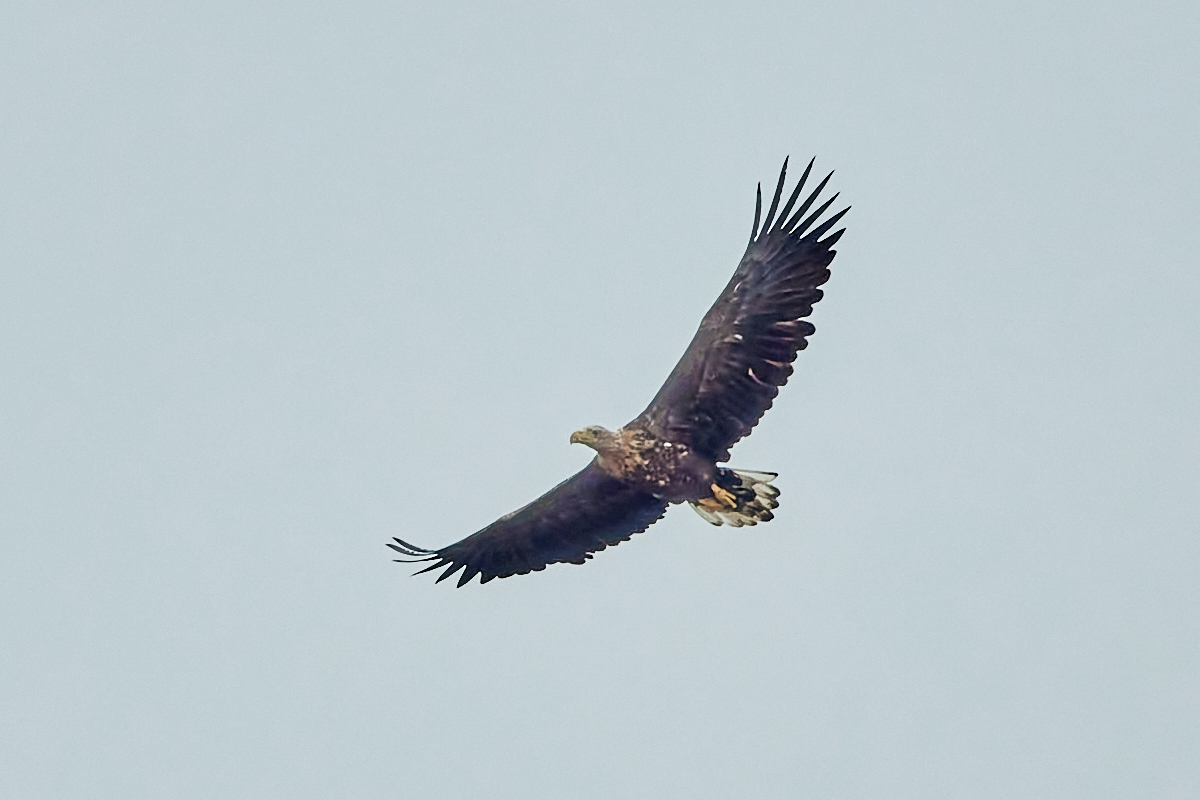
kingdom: Animalia
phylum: Chordata
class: Aves
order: Accipitriformes
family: Accipitridae
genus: Haliaeetus
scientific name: Haliaeetus albicilla
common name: Havørn
